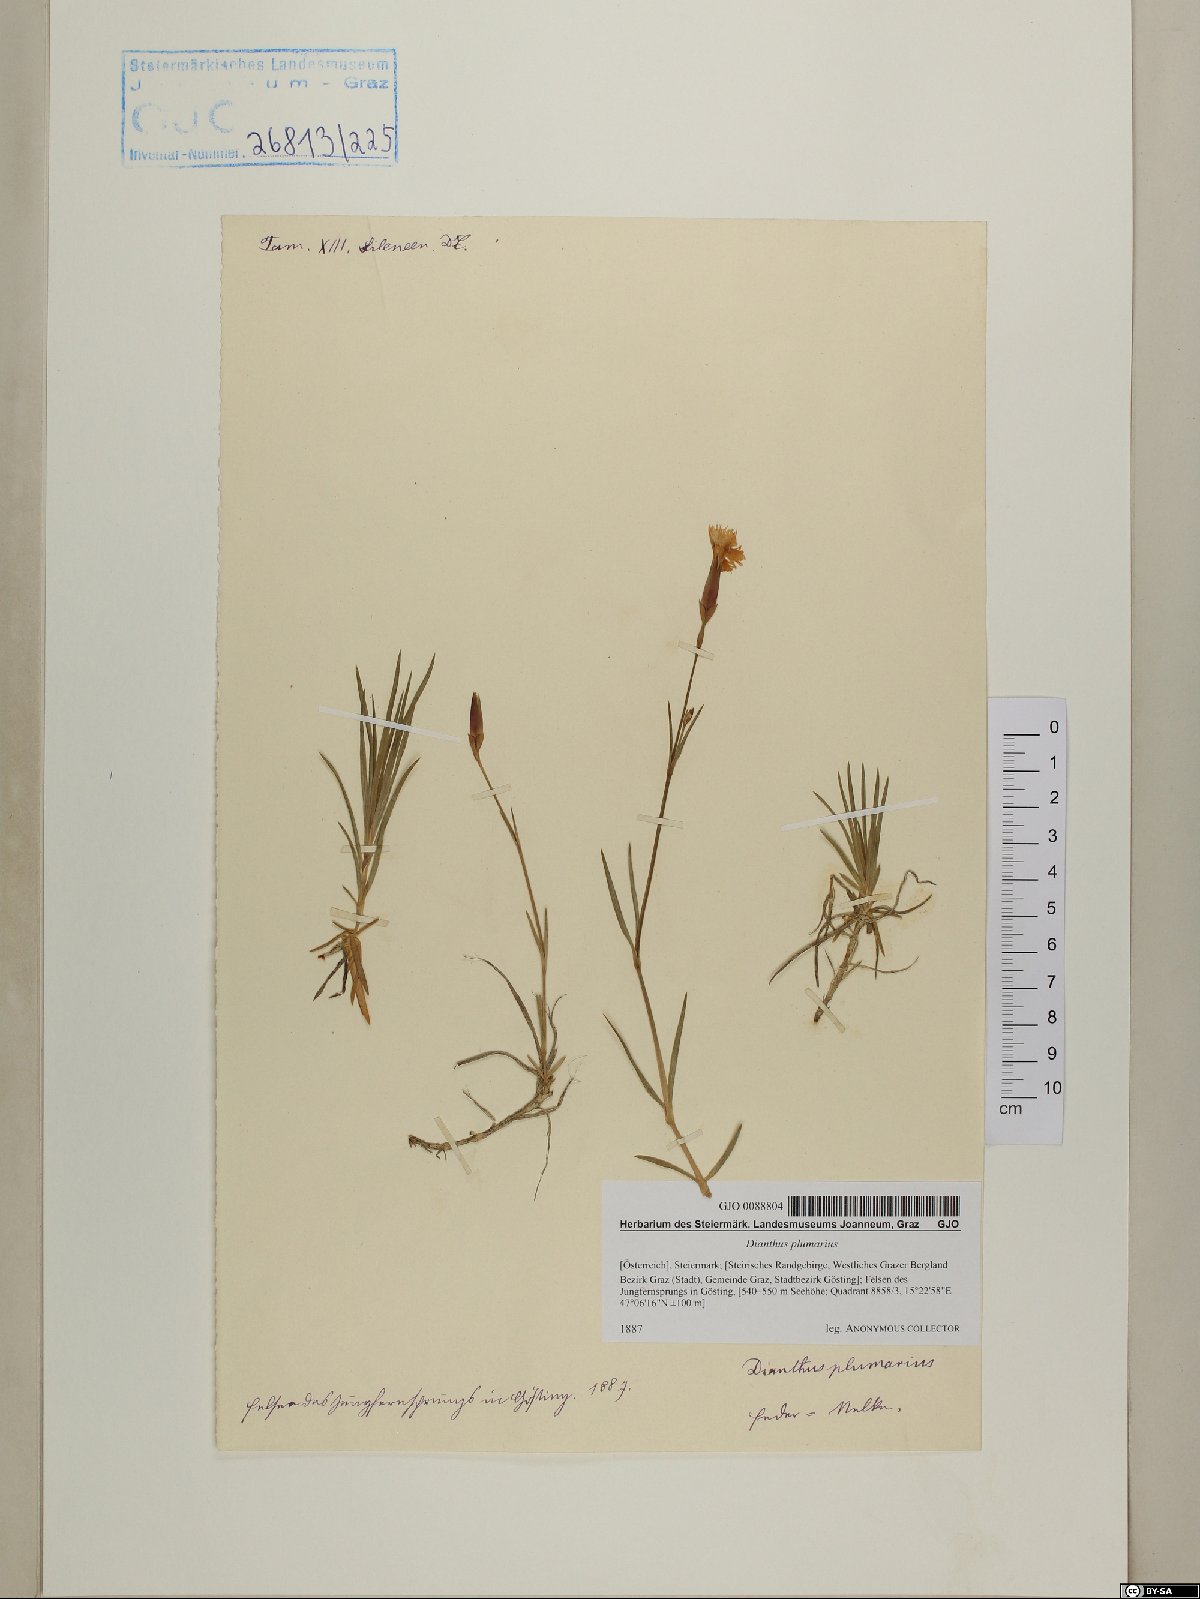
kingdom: Plantae
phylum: Tracheophyta
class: Magnoliopsida
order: Caryophyllales
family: Caryophyllaceae
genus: Dianthus
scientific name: Dianthus plumarius
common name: Pink
